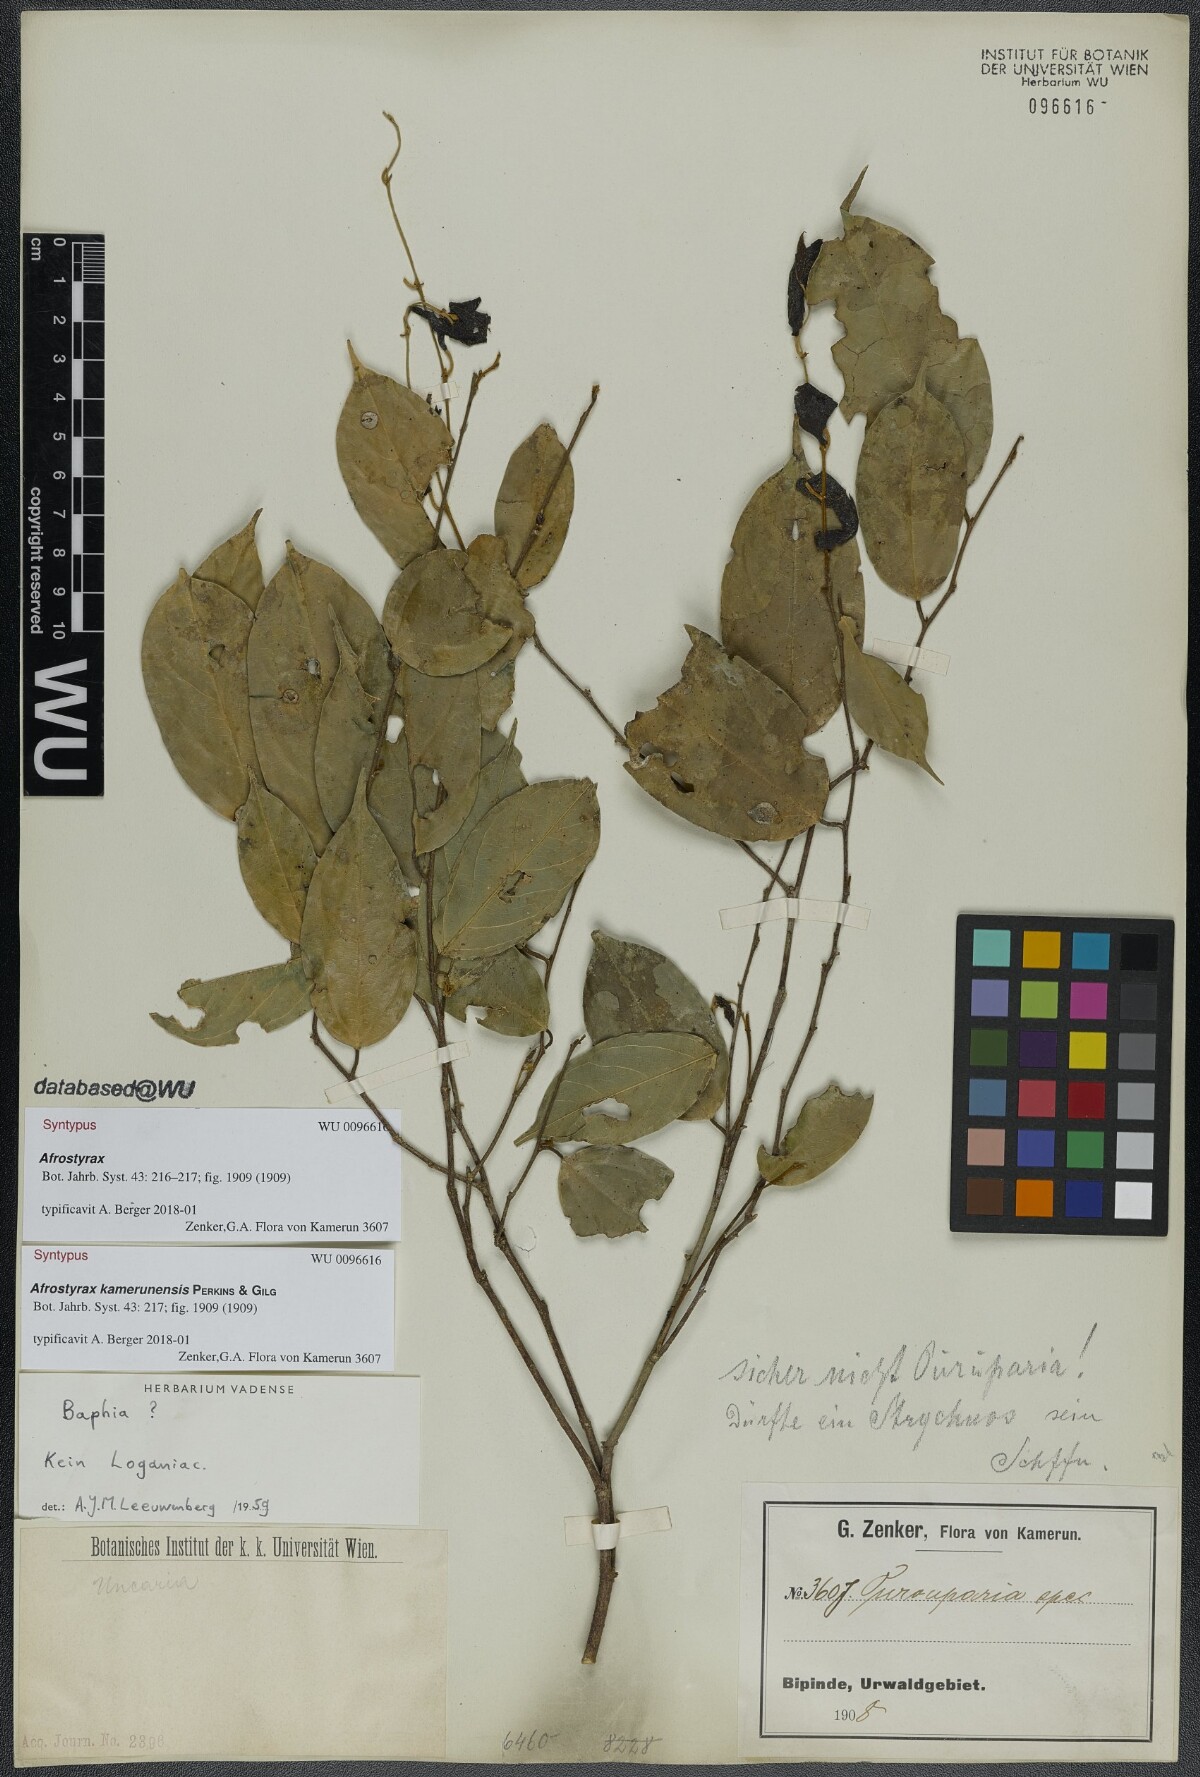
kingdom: Plantae
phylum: Tracheophyta
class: Magnoliopsida
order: Oxalidales
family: Huaceae
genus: Afrostyrax
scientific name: Afrostyrax kamerunensis
